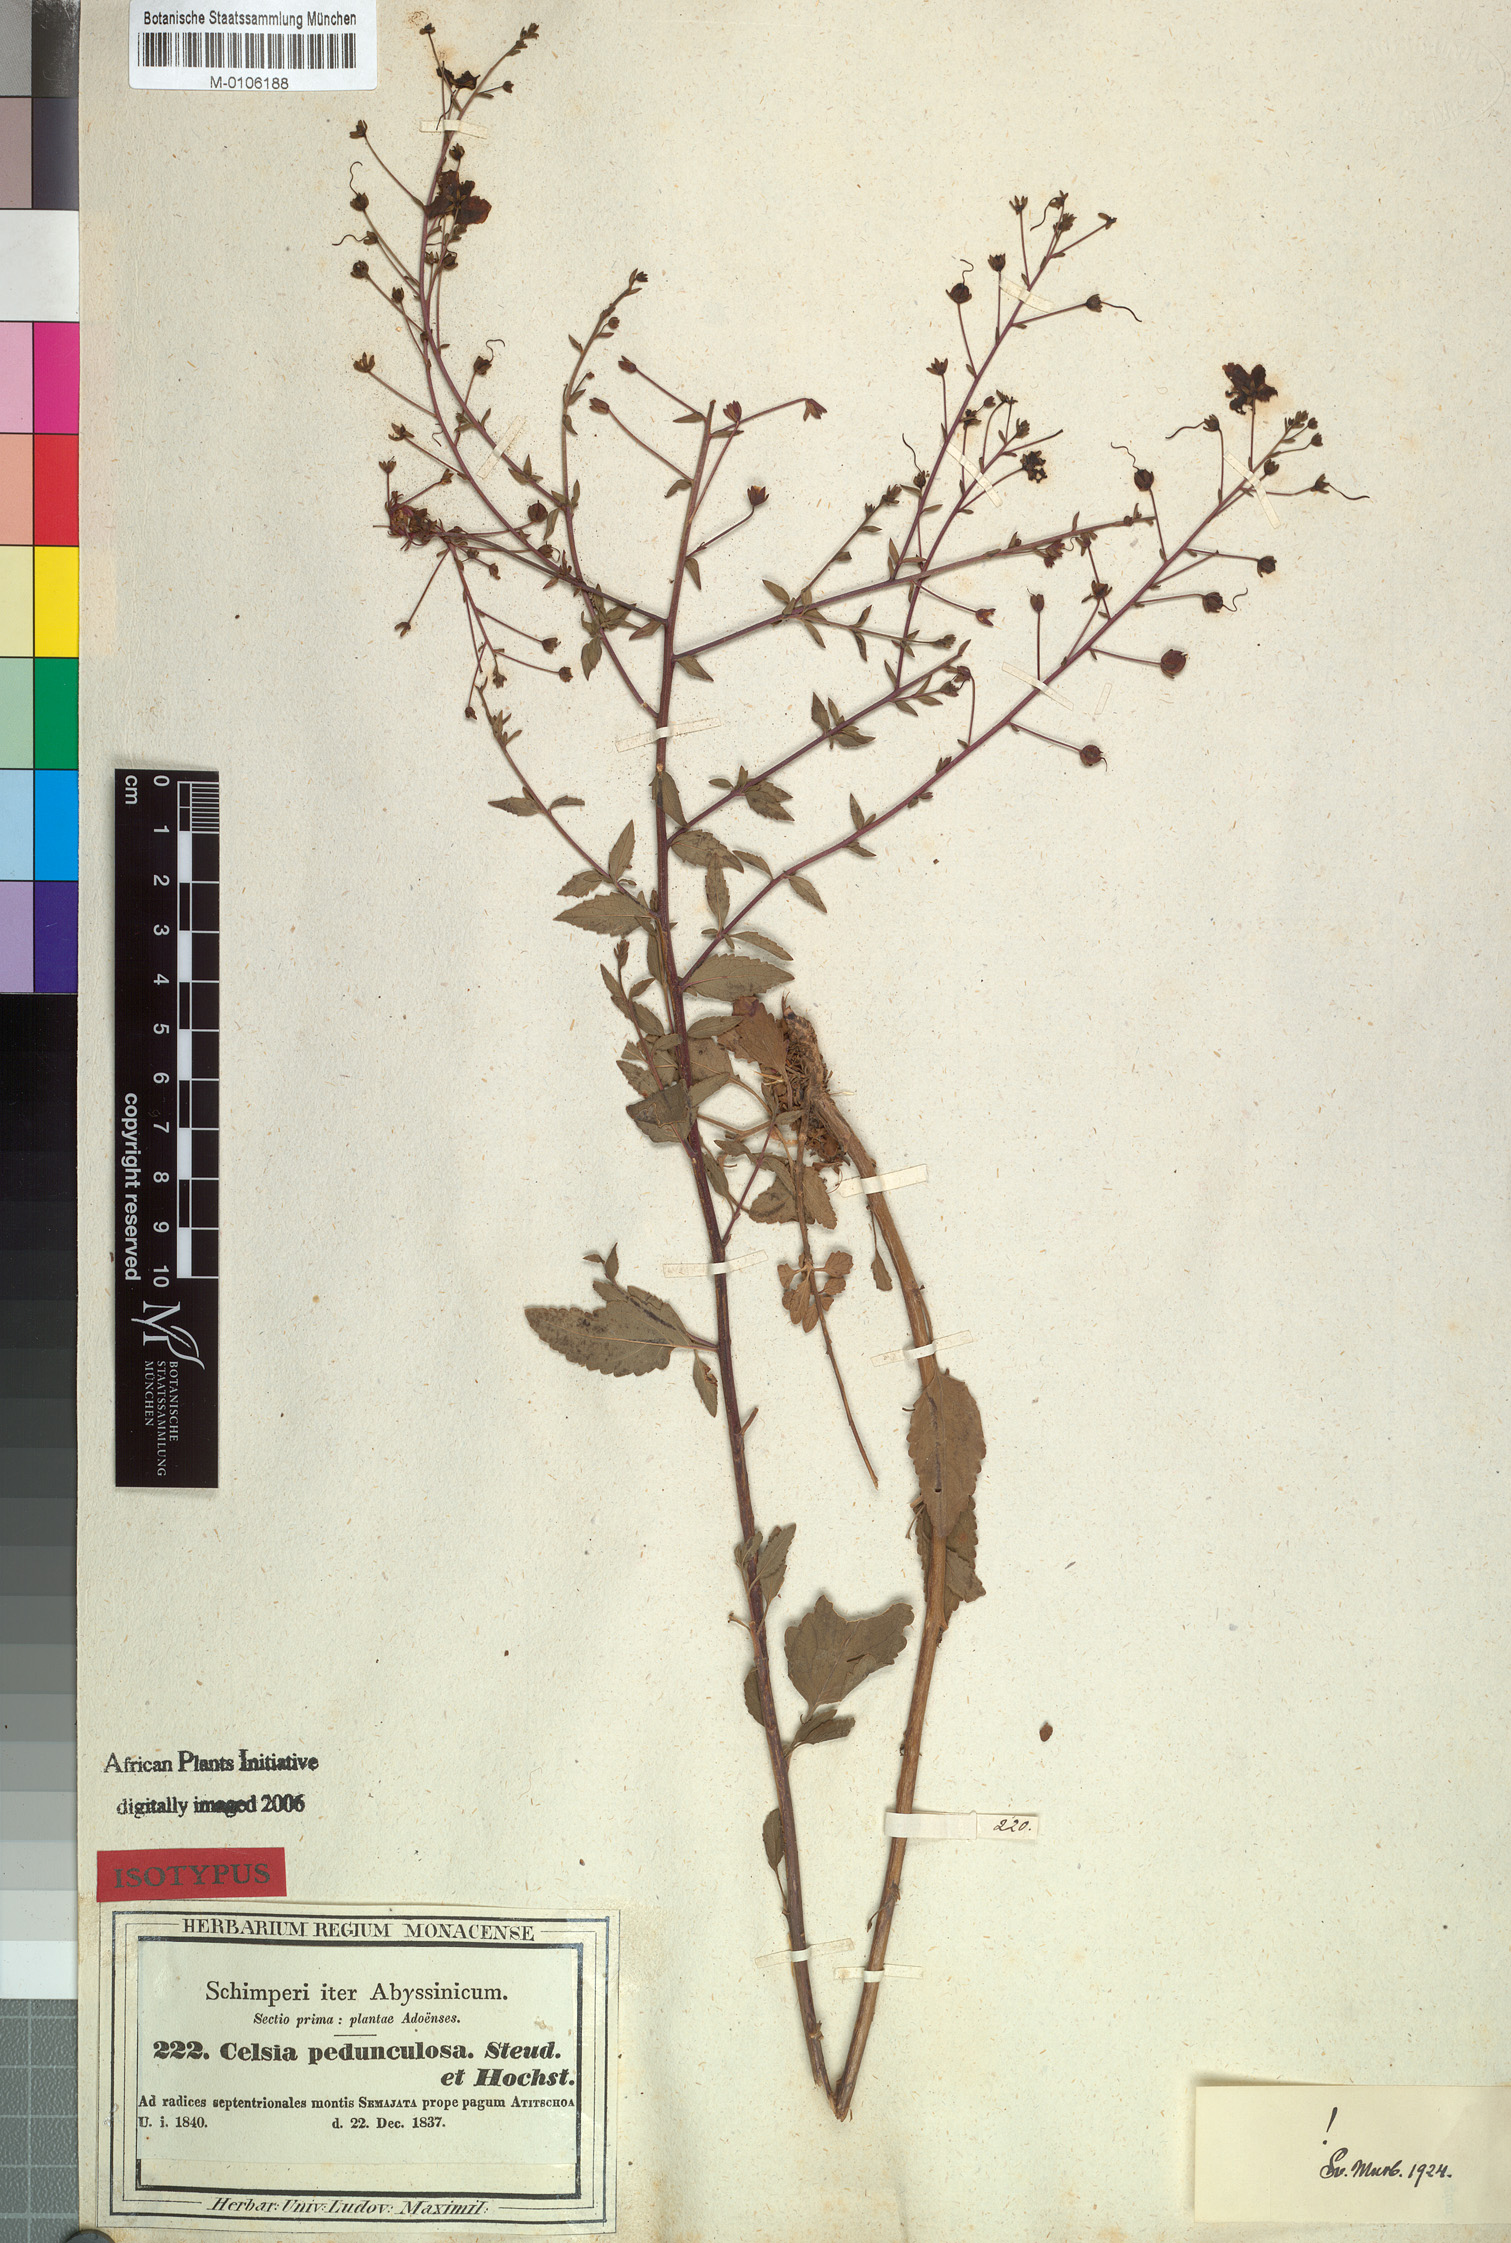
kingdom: Plantae
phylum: Tracheophyta
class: Magnoliopsida
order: Lamiales
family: Scrophulariaceae
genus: Verbascum
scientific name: Verbascum pedunculosum
